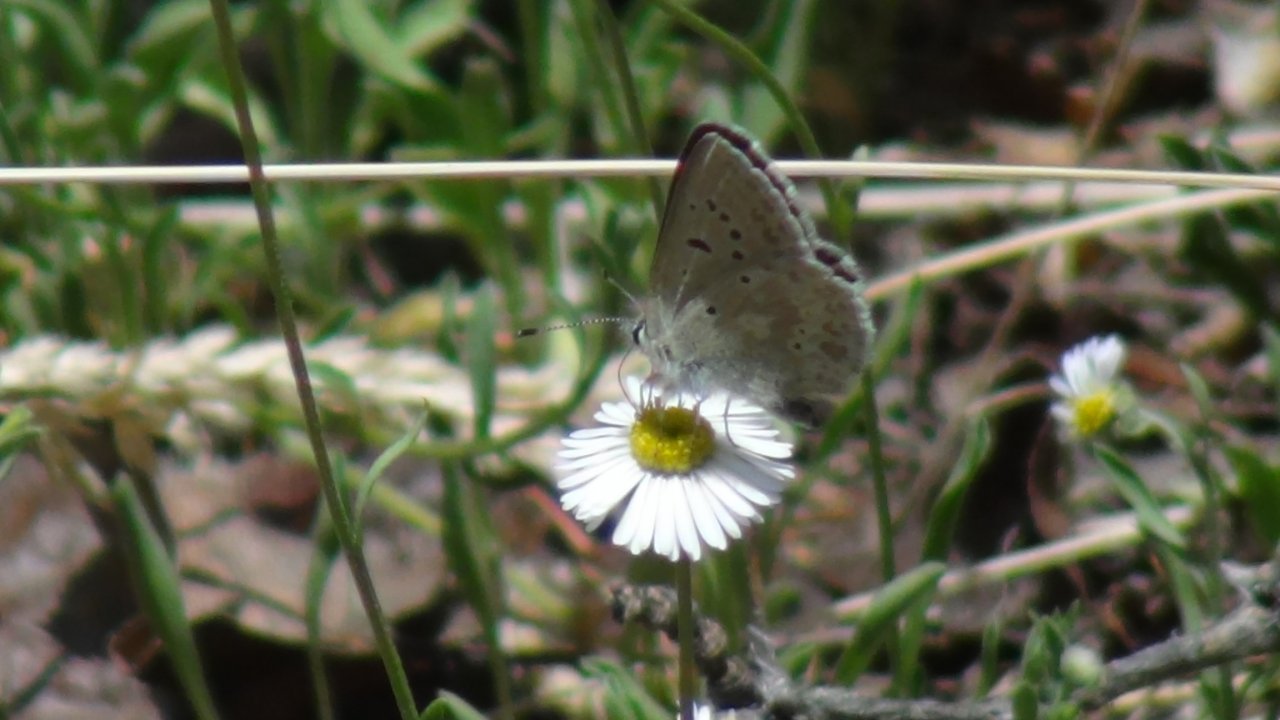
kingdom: Animalia
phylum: Arthropoda
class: Insecta
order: Lepidoptera
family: Lycaenidae
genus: Agriades
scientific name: Agriades glandon
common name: Arctic Blue
